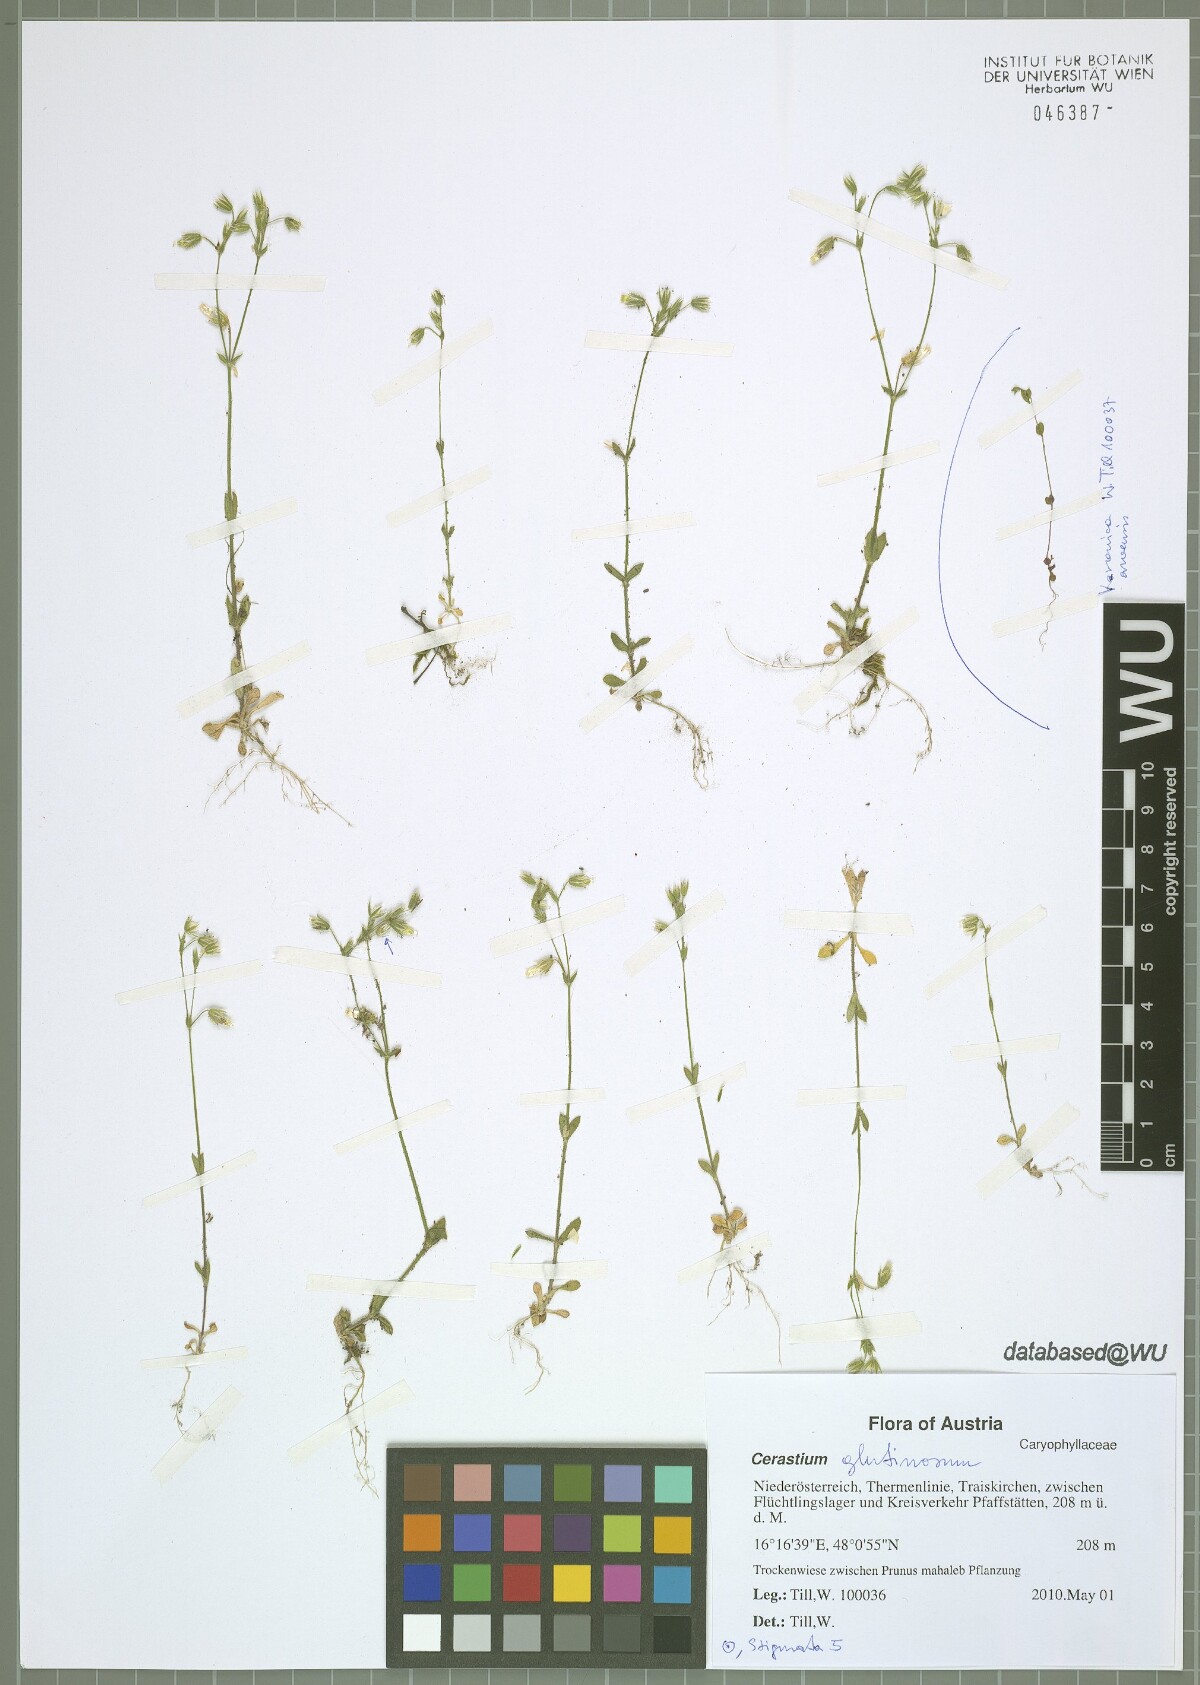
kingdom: Plantae
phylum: Tracheophyta
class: Magnoliopsida
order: Caryophyllales
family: Caryophyllaceae
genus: Cerastium
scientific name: Cerastium glutinosum
